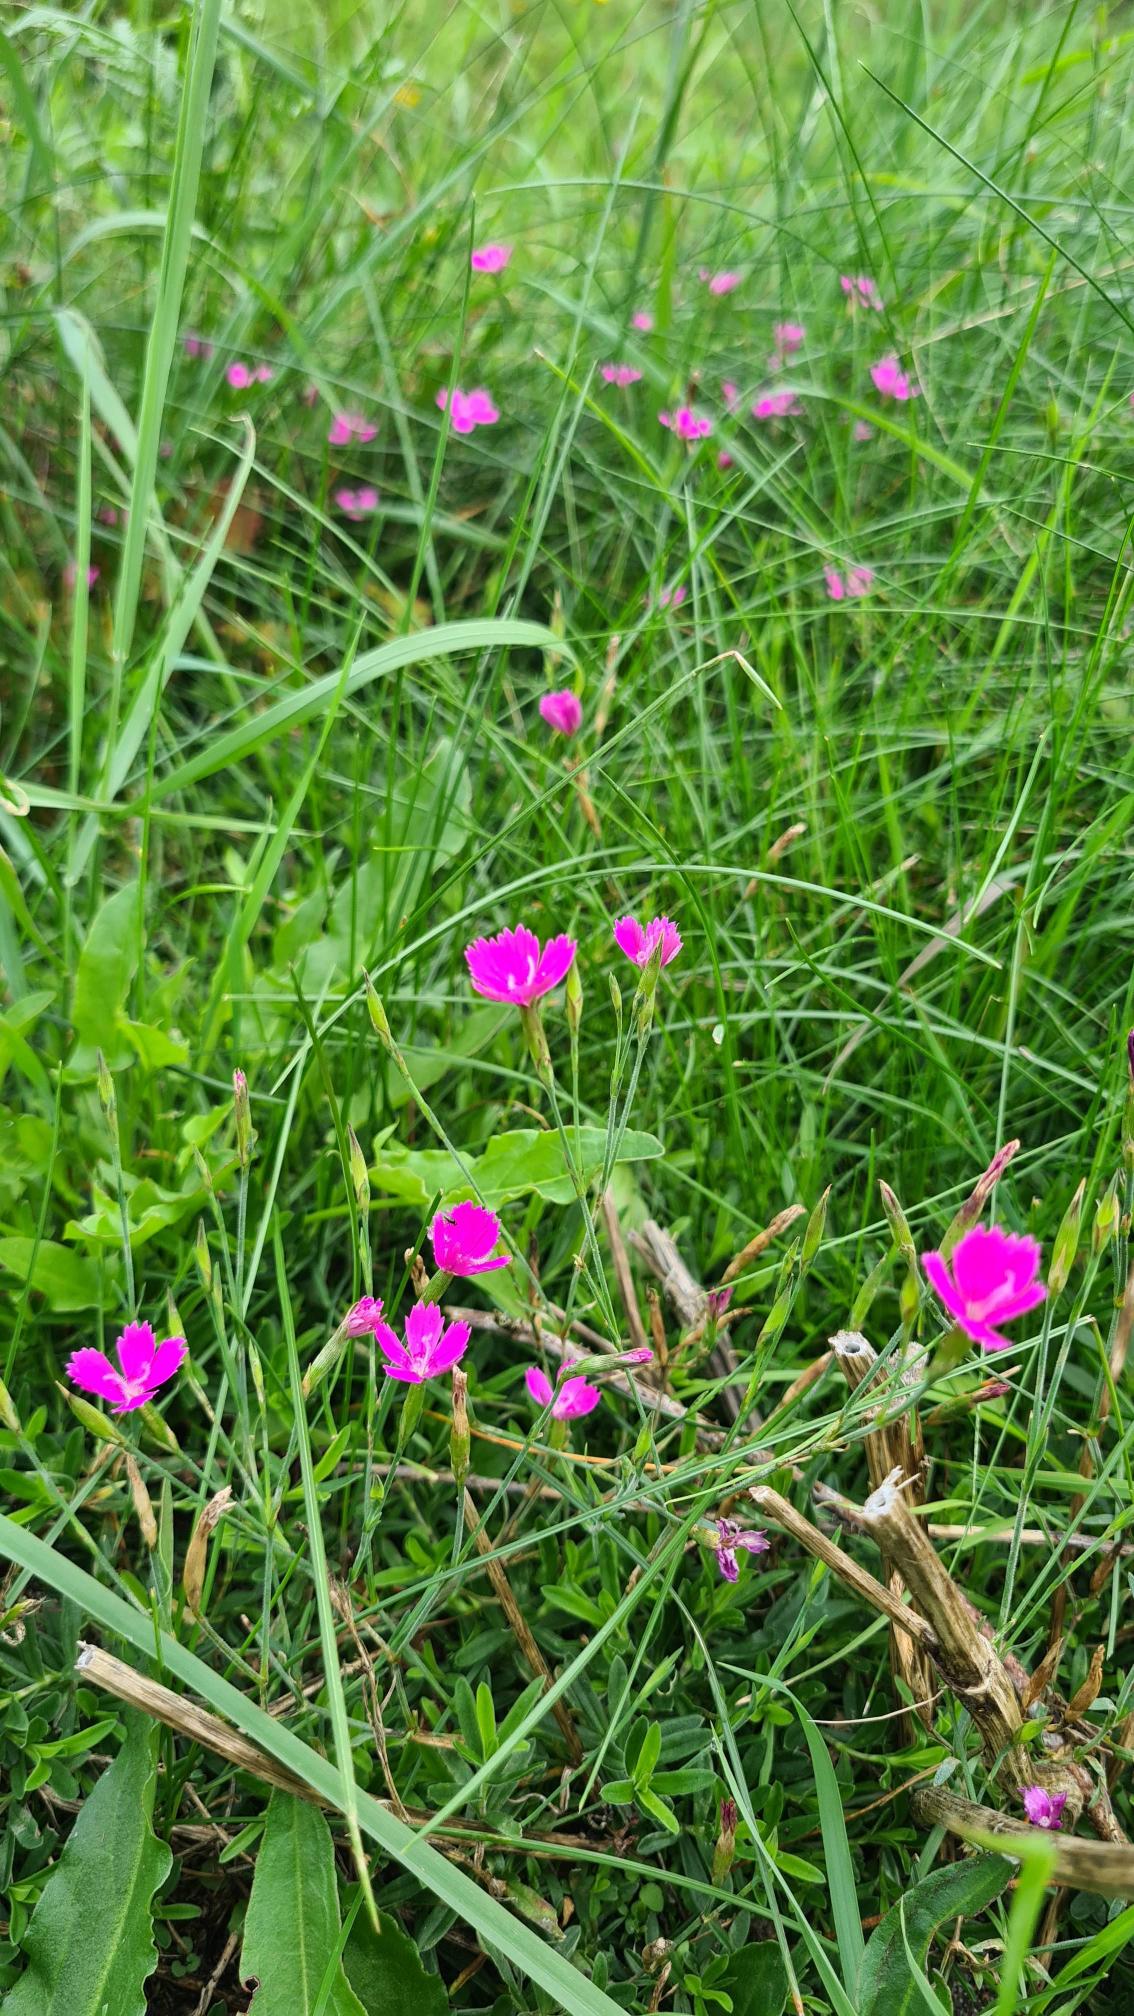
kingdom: Plantae
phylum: Tracheophyta
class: Magnoliopsida
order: Caryophyllales
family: Caryophyllaceae
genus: Dianthus
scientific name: Dianthus deltoides
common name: Bakke-nellike
